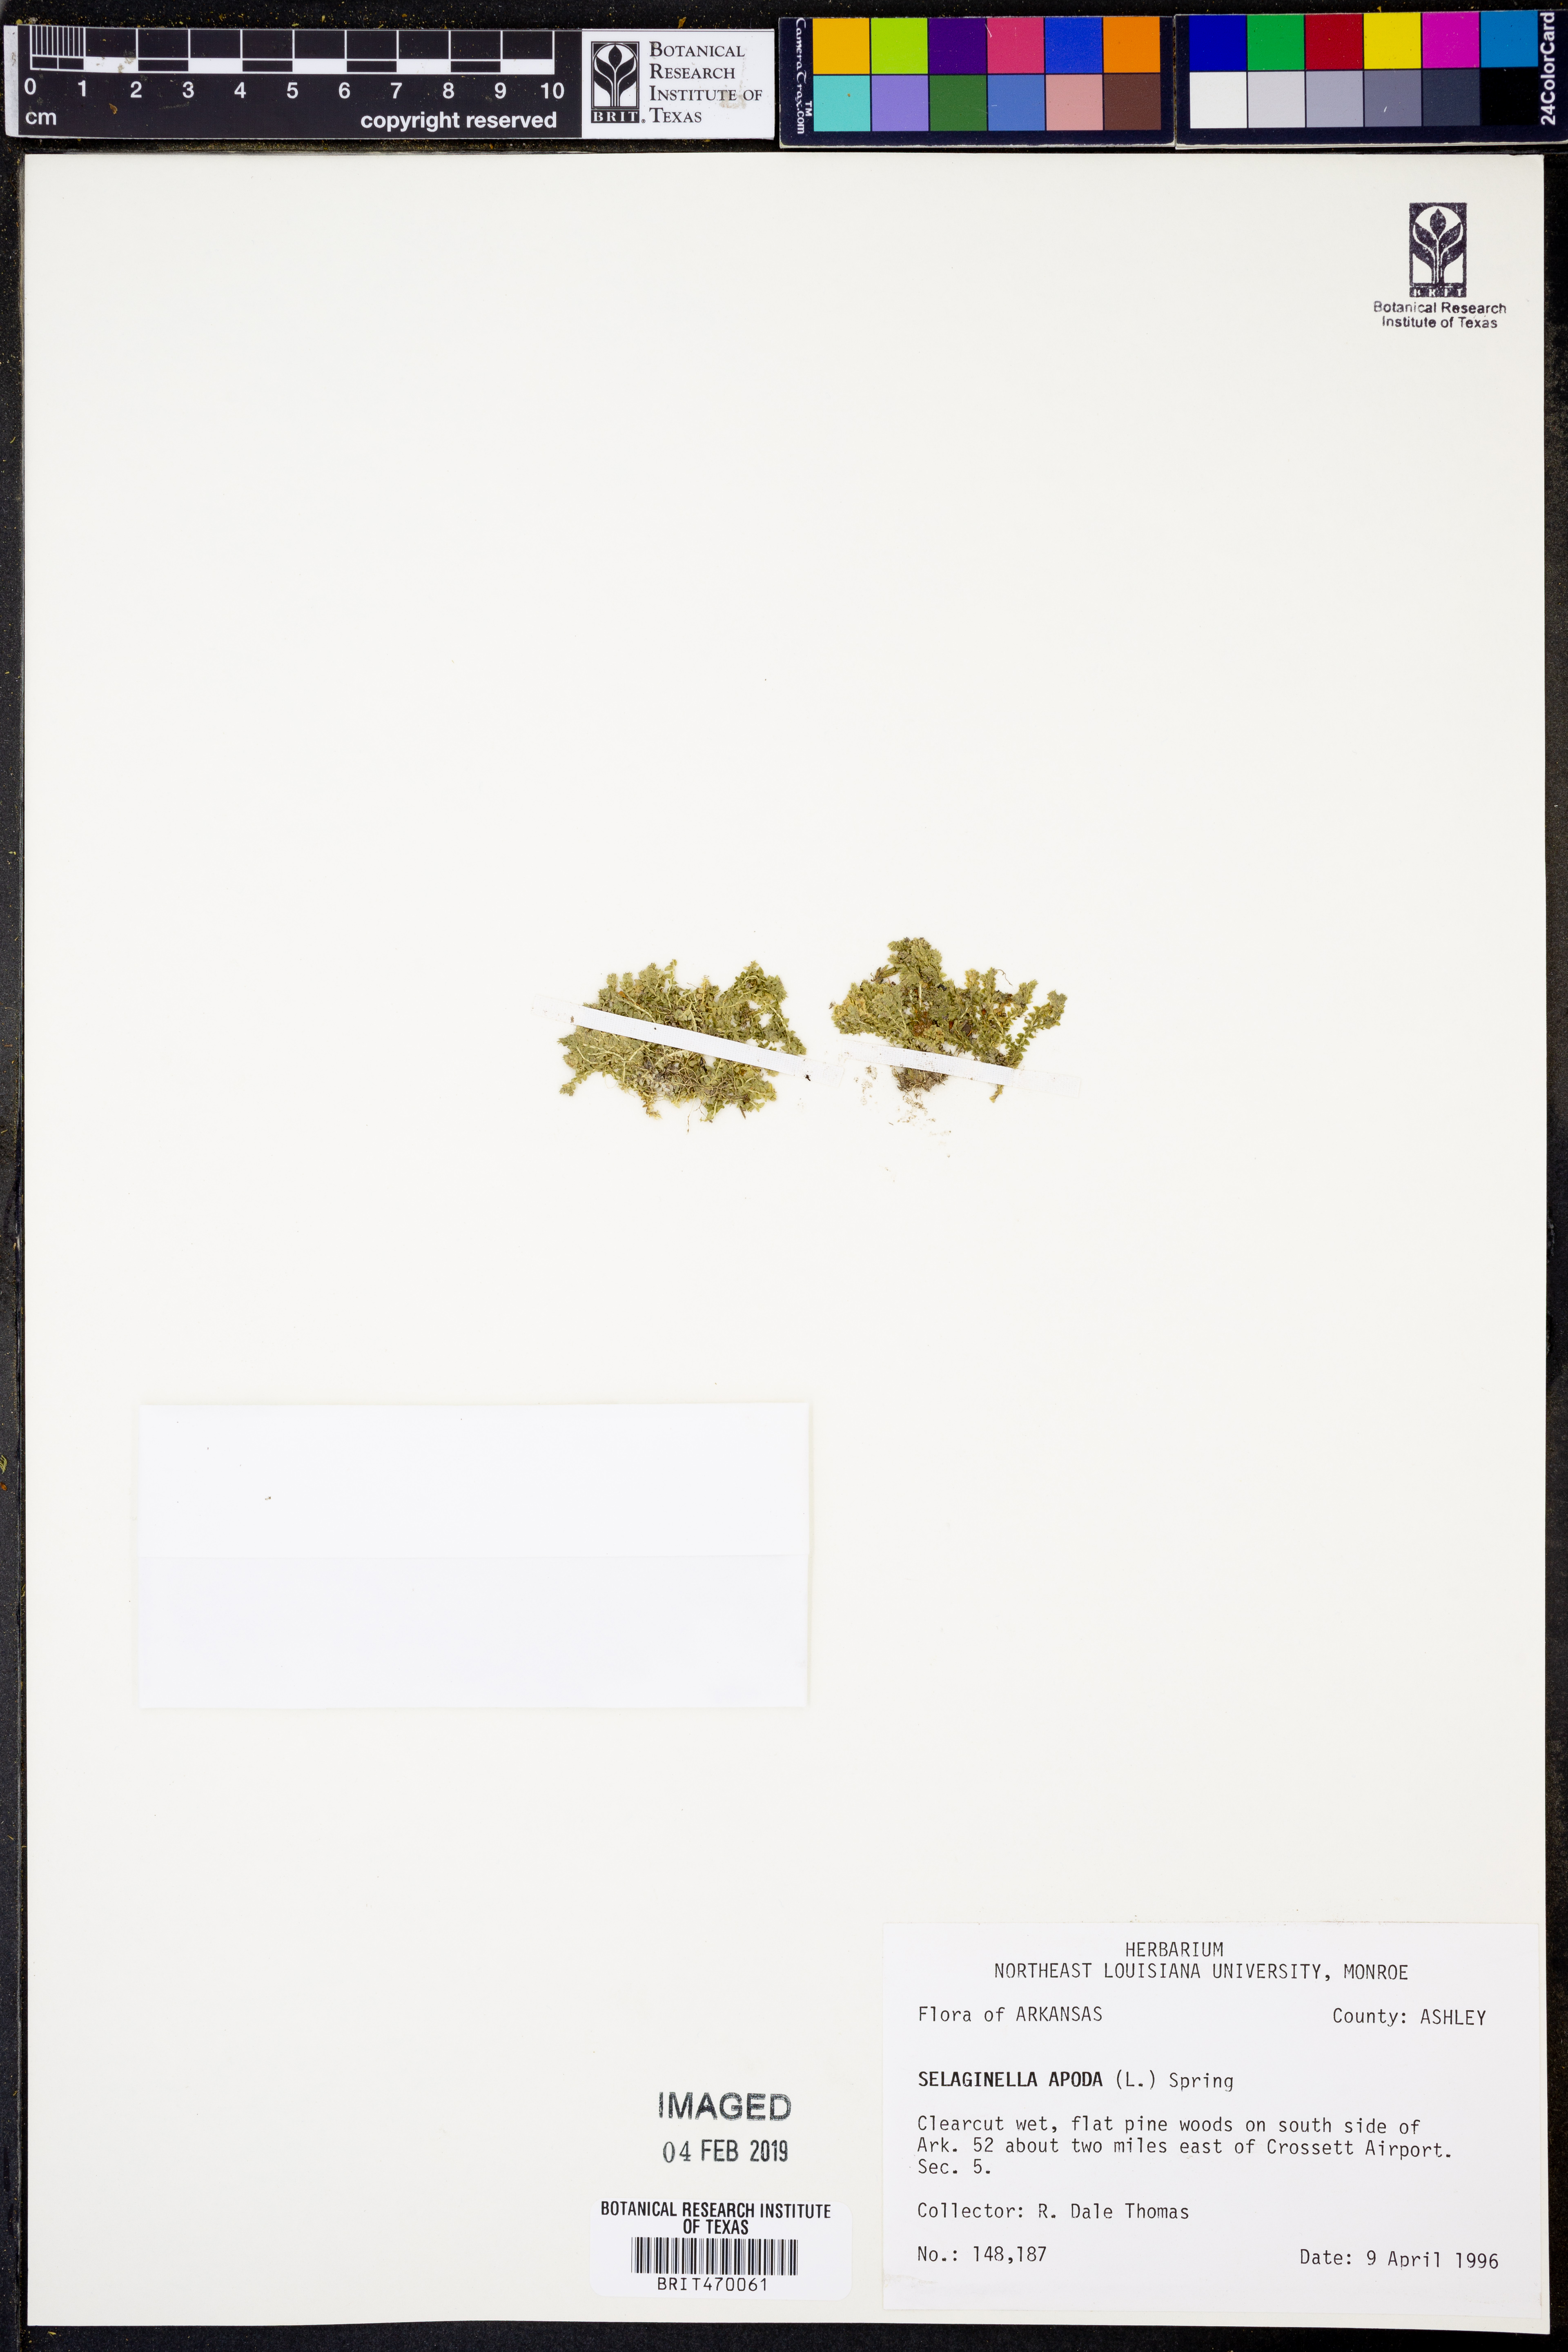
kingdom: Plantae
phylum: Tracheophyta
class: Lycopodiopsida
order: Selaginellales
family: Selaginellaceae
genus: Selaginella
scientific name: Selaginella apoda
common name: Creeping spikemoss
